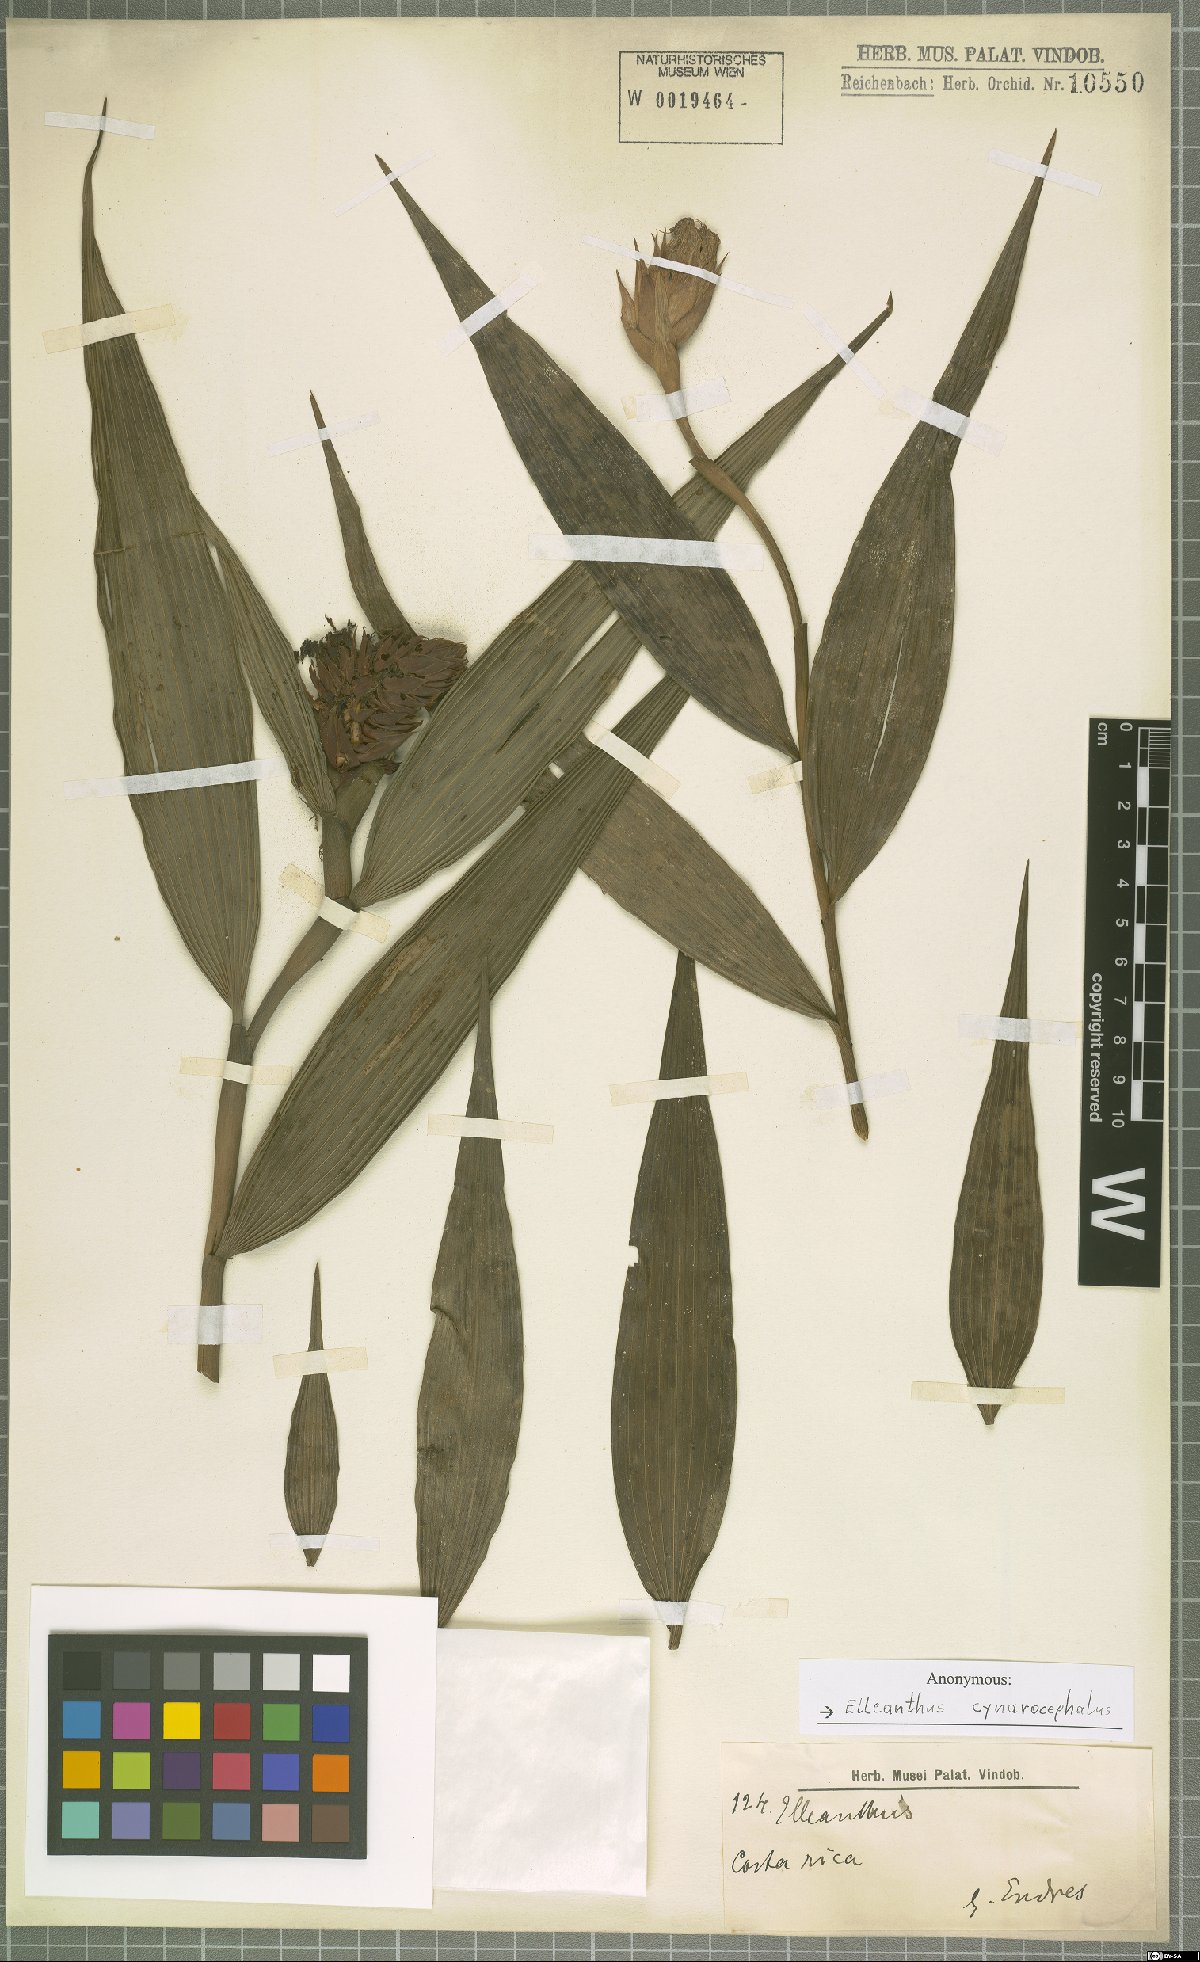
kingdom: Plantae
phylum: Tracheophyta
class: Liliopsida
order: Asparagales
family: Orchidaceae
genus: Elleanthus
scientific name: Elleanthus capitatus
